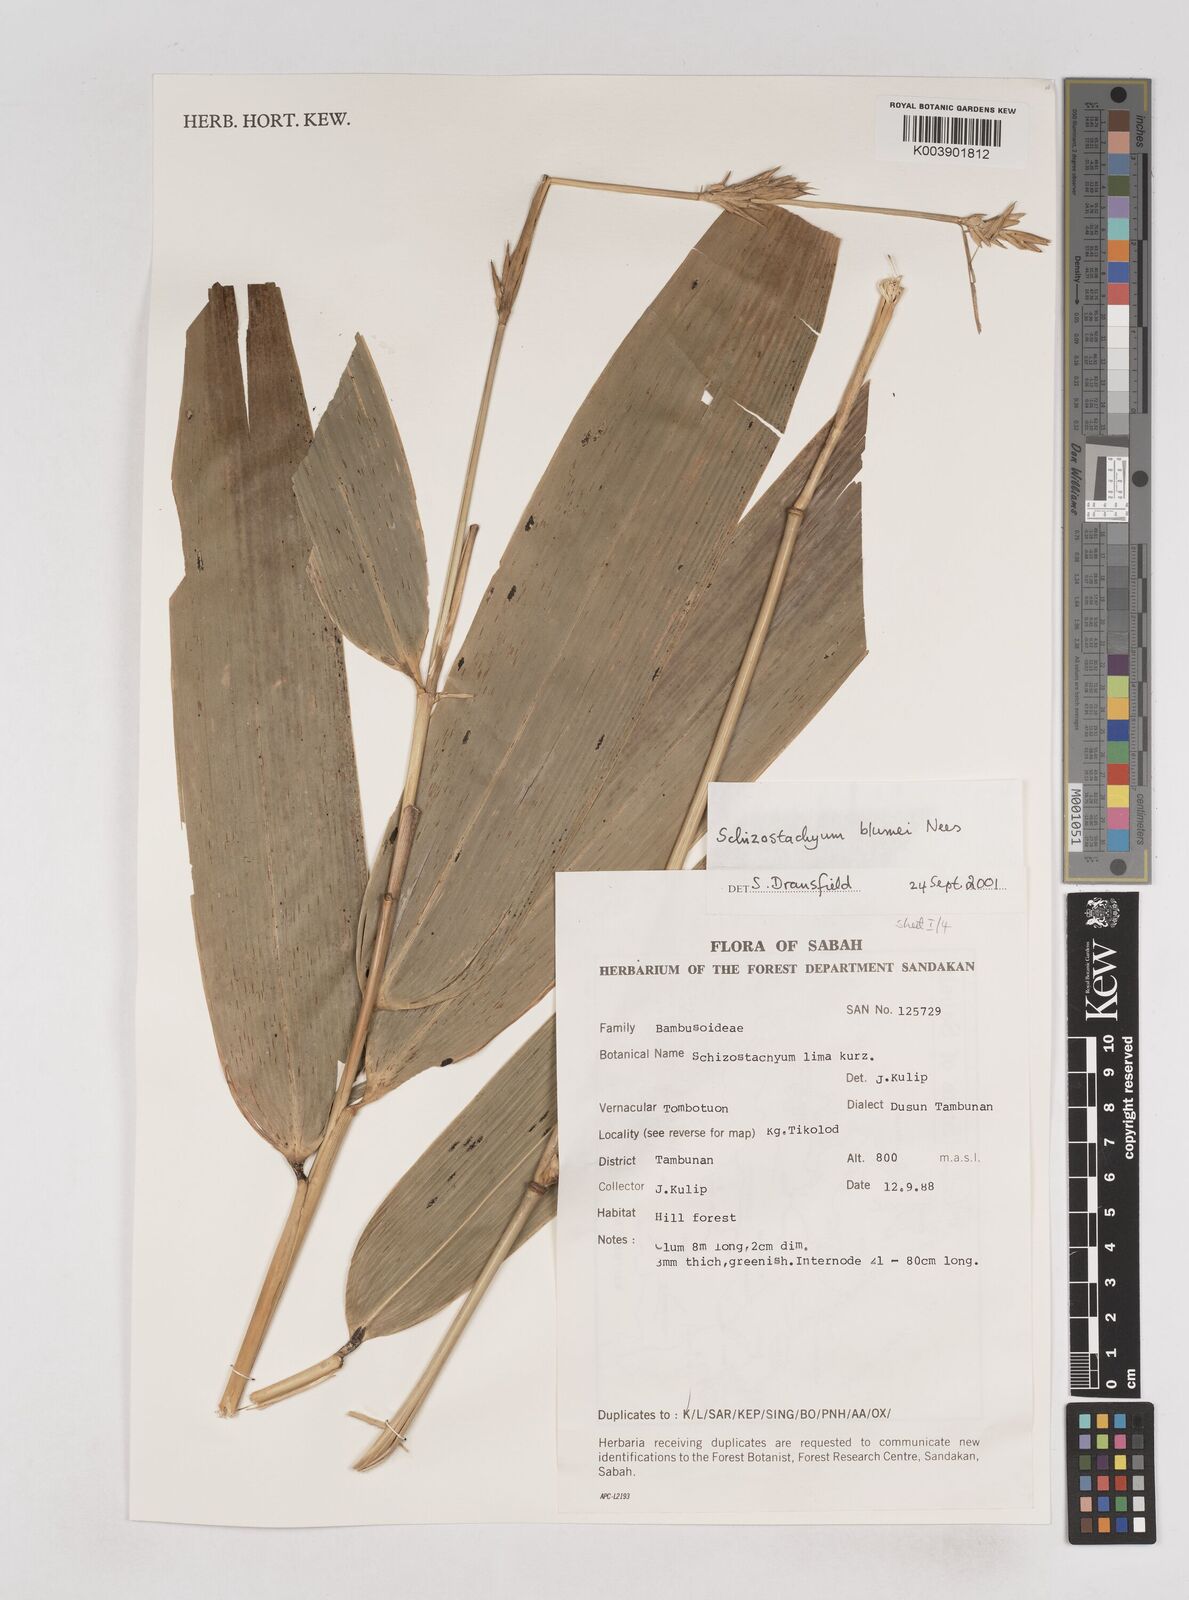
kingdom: Plantae
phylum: Tracheophyta
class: Liliopsida
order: Poales
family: Poaceae
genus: Schizostachyum
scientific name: Schizostachyum blumei
